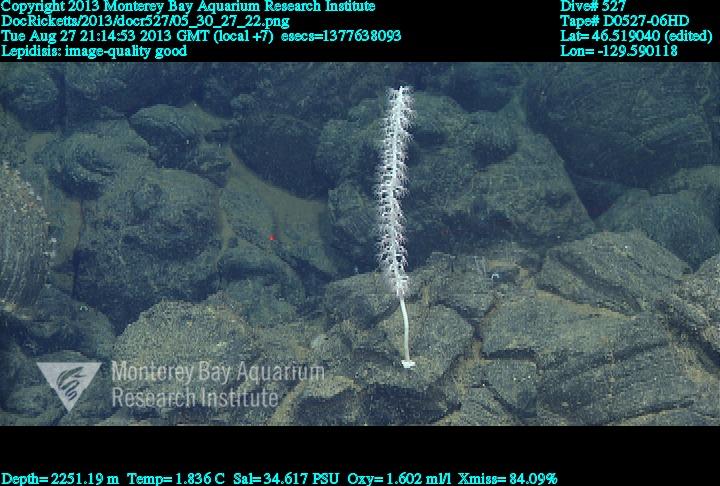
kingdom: Animalia
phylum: Cnidaria
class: Anthozoa
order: Scleralcyonacea
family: Keratoisididae
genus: Lepidisis
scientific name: Lepidisis
